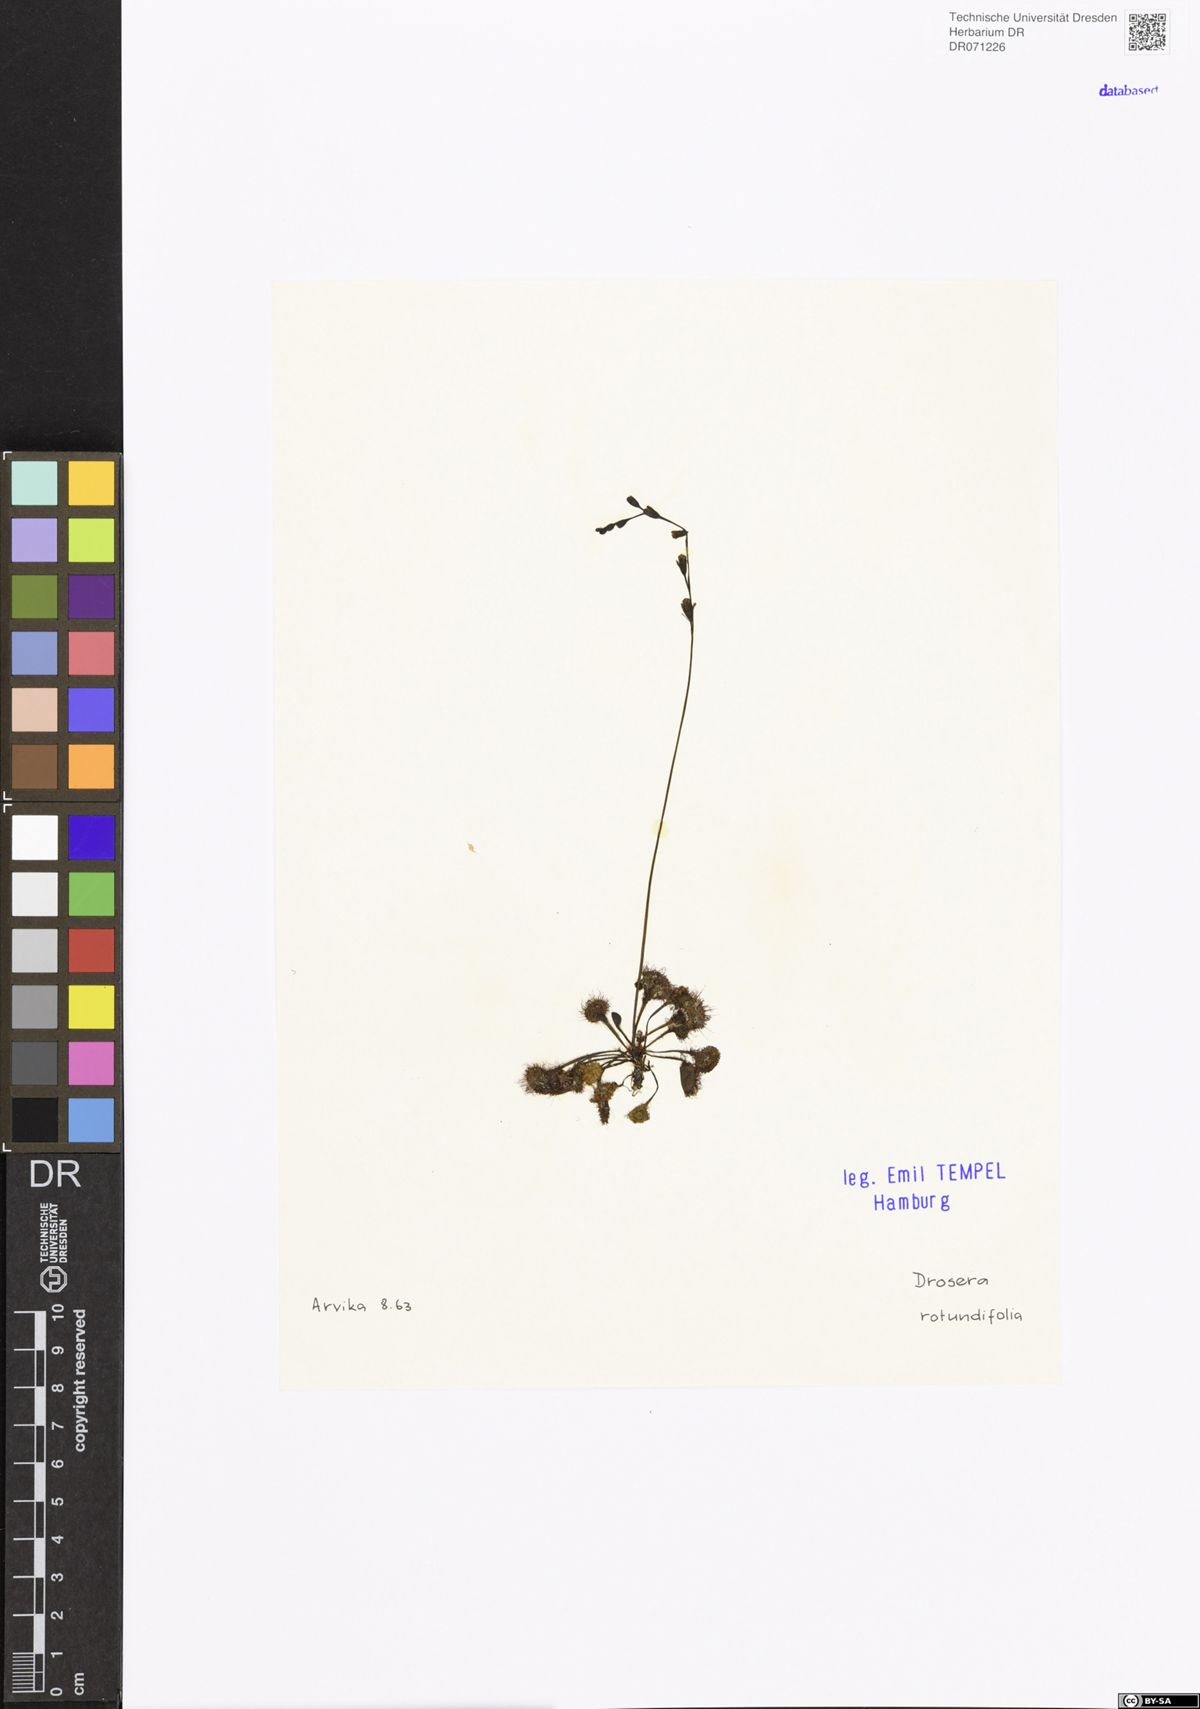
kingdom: Plantae
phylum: Tracheophyta
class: Magnoliopsida
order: Caryophyllales
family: Droseraceae
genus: Drosera
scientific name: Drosera rotundifolia
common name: Round-leaved sundew
